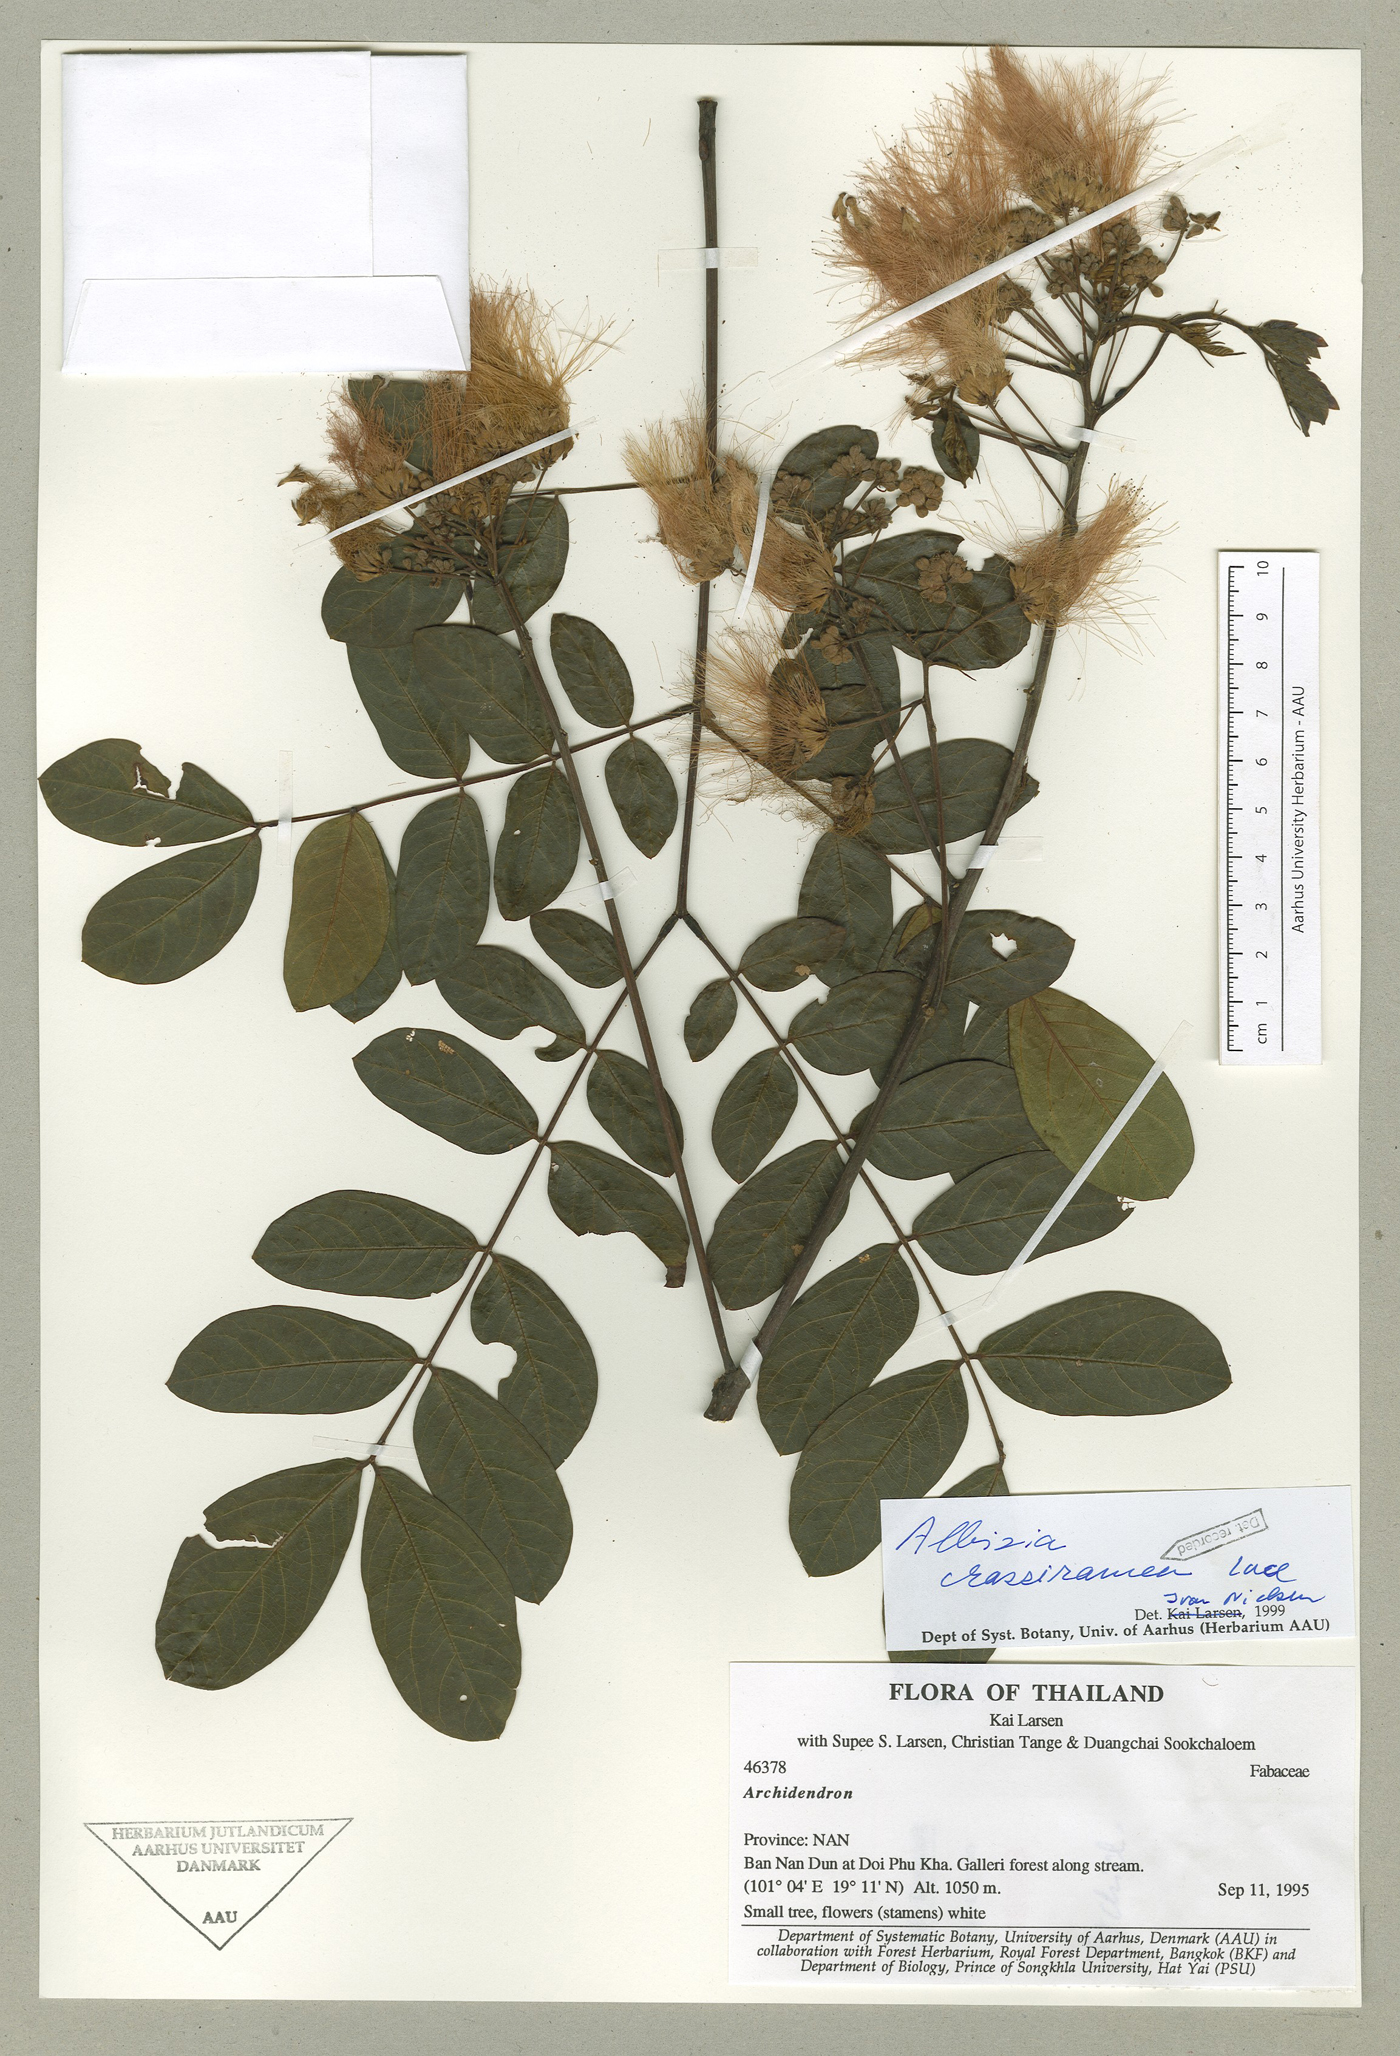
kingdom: Plantae
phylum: Tracheophyta
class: Magnoliopsida
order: Fabales
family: Fabaceae
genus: Albizia
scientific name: Albizia crassiramea
